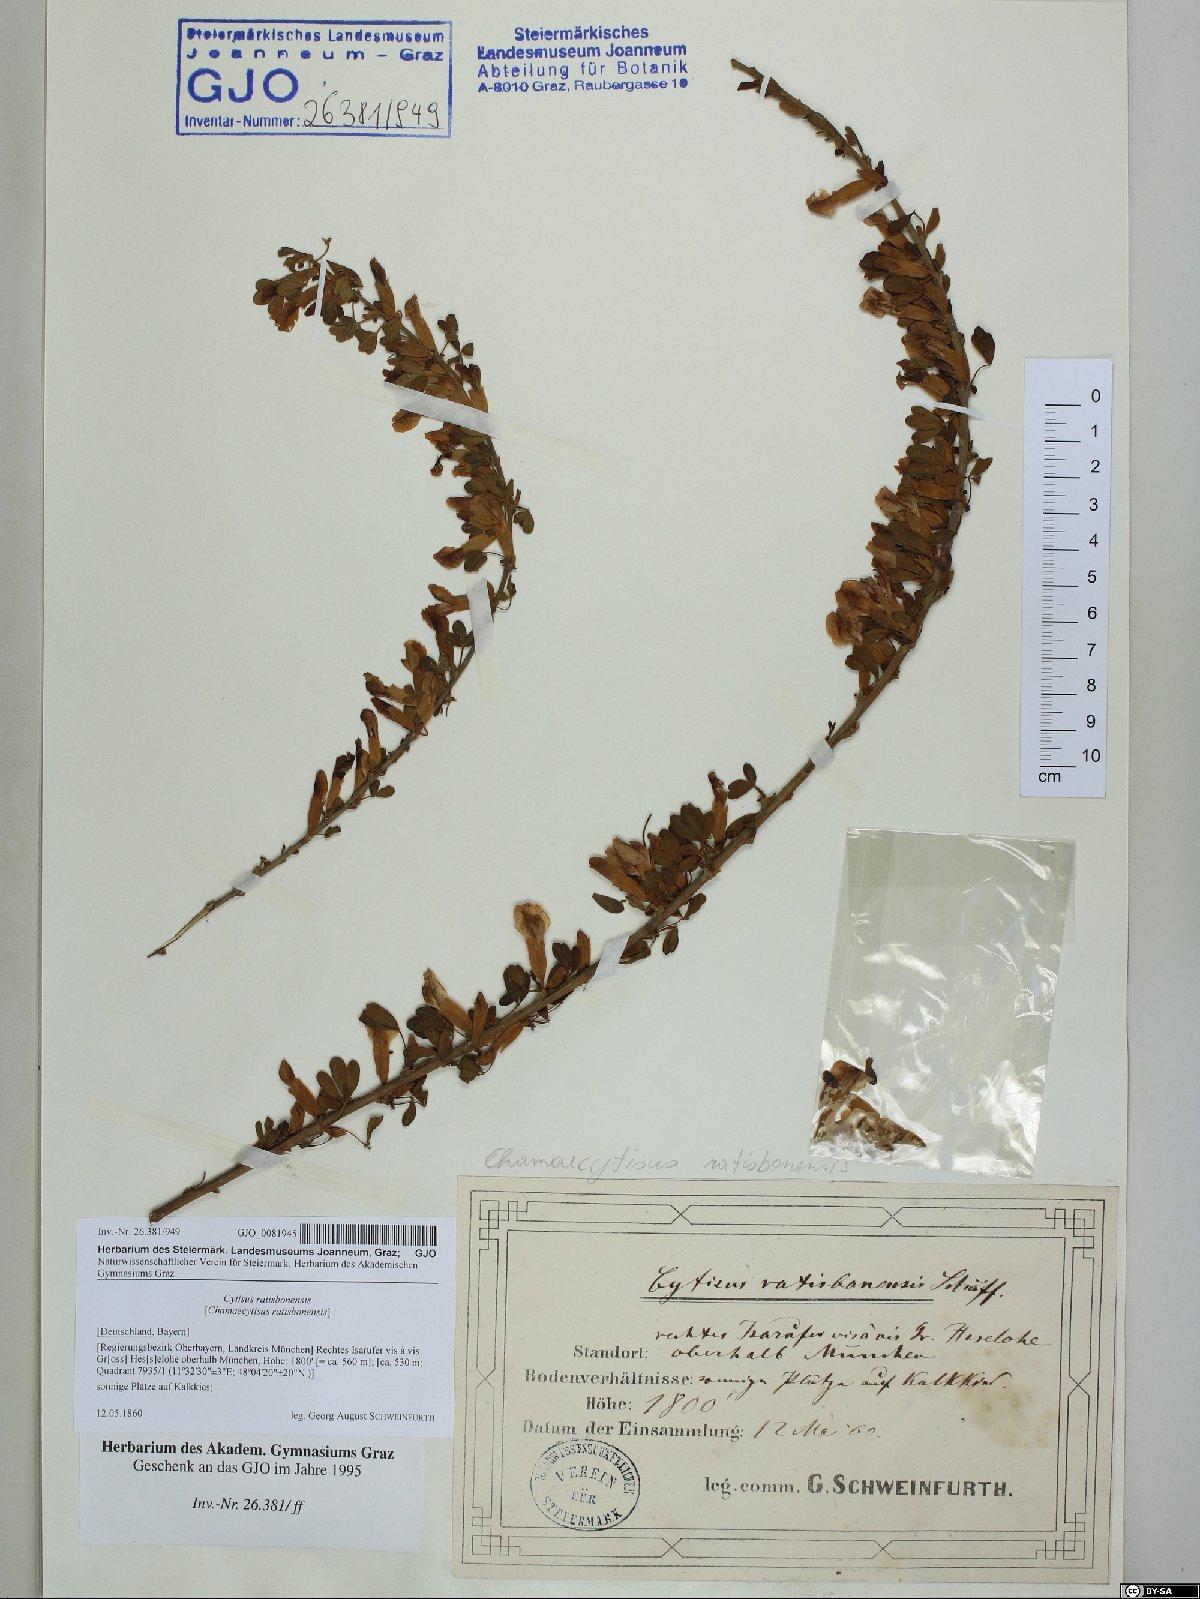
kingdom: Plantae
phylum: Tracheophyta
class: Magnoliopsida
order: Fabales
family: Fabaceae
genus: Chamaecytisus
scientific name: Chamaecytisus ratisbonensis
